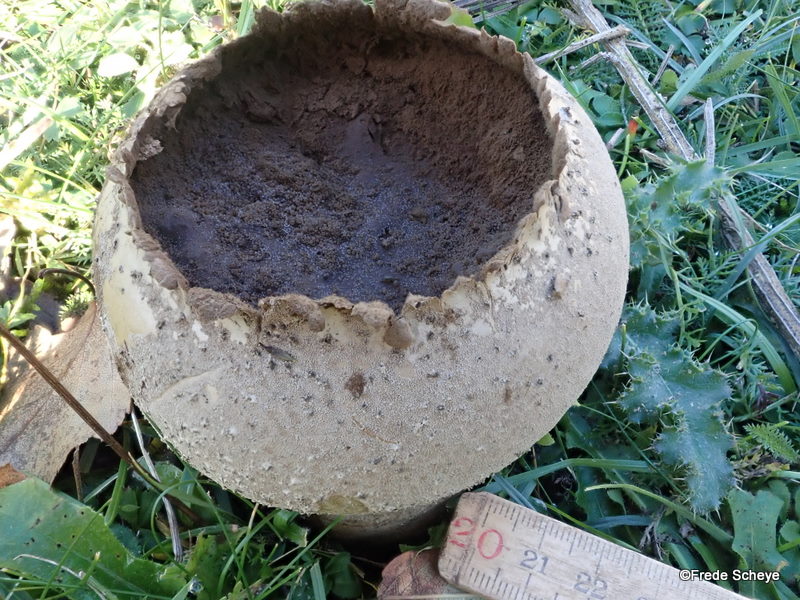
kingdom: Fungi
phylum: Basidiomycota
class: Agaricomycetes
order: Agaricales
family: Lycoperdaceae
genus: Bovistella
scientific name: Bovistella utriformis
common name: skællet støvbold
